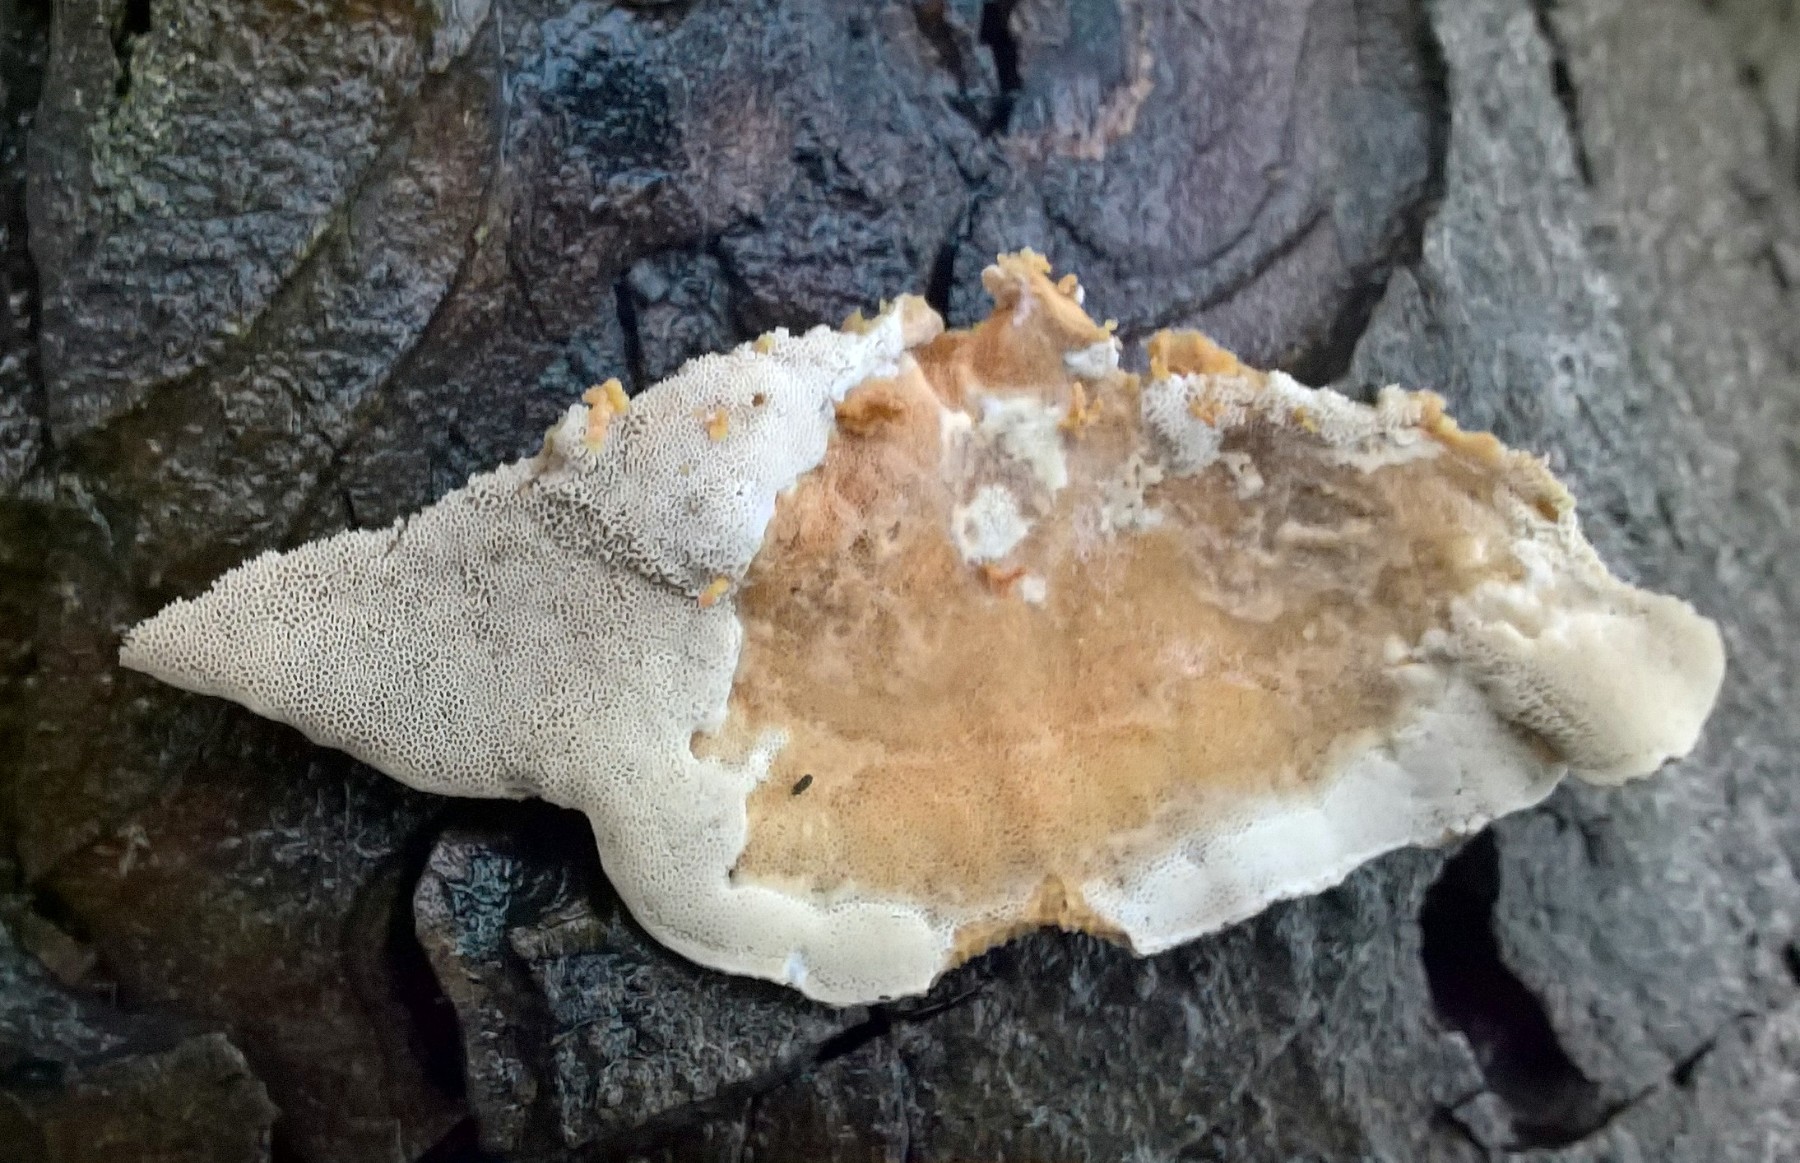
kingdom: Fungi
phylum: Basidiomycota
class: Agaricomycetes
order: Polyporales
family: Phanerochaetaceae
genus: Bjerkandera
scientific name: Bjerkandera fumosa
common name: grågul sodporesvamp
